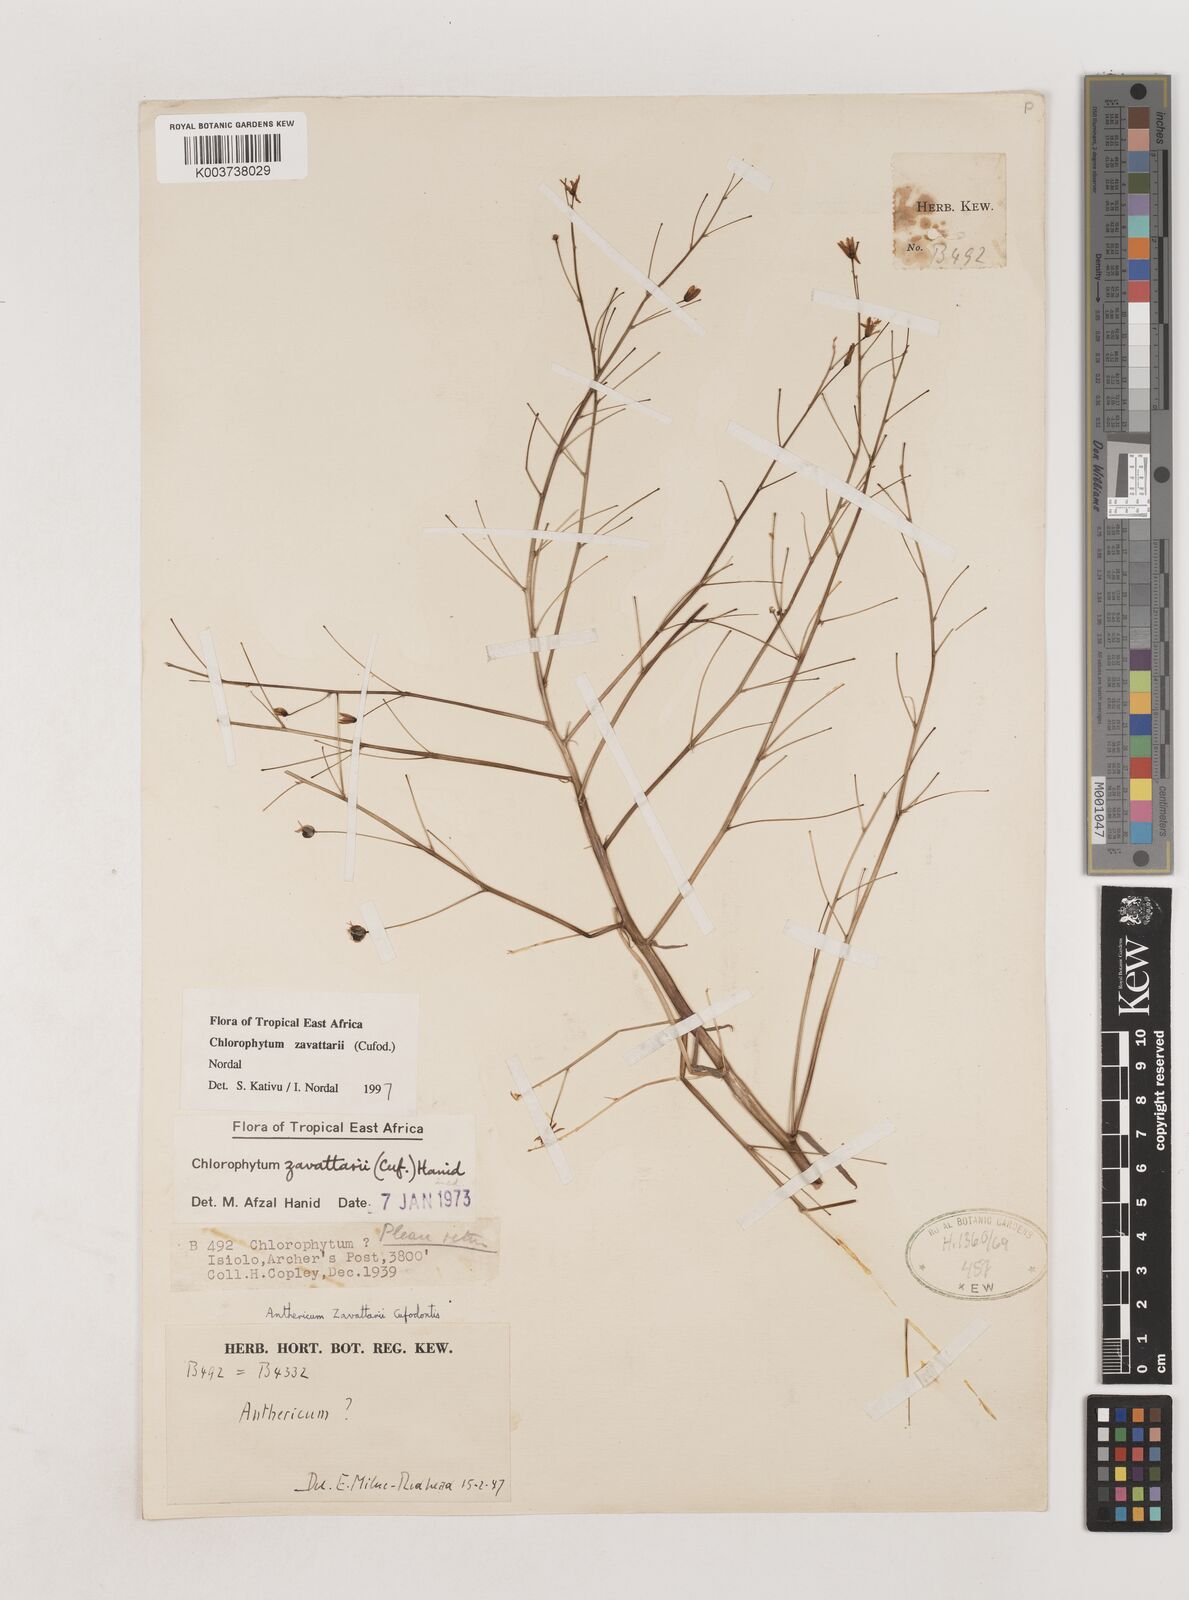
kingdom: Plantae
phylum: Tracheophyta
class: Liliopsida
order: Asparagales
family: Asparagaceae
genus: Chlorophytum
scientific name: Chlorophytum zavattarii
